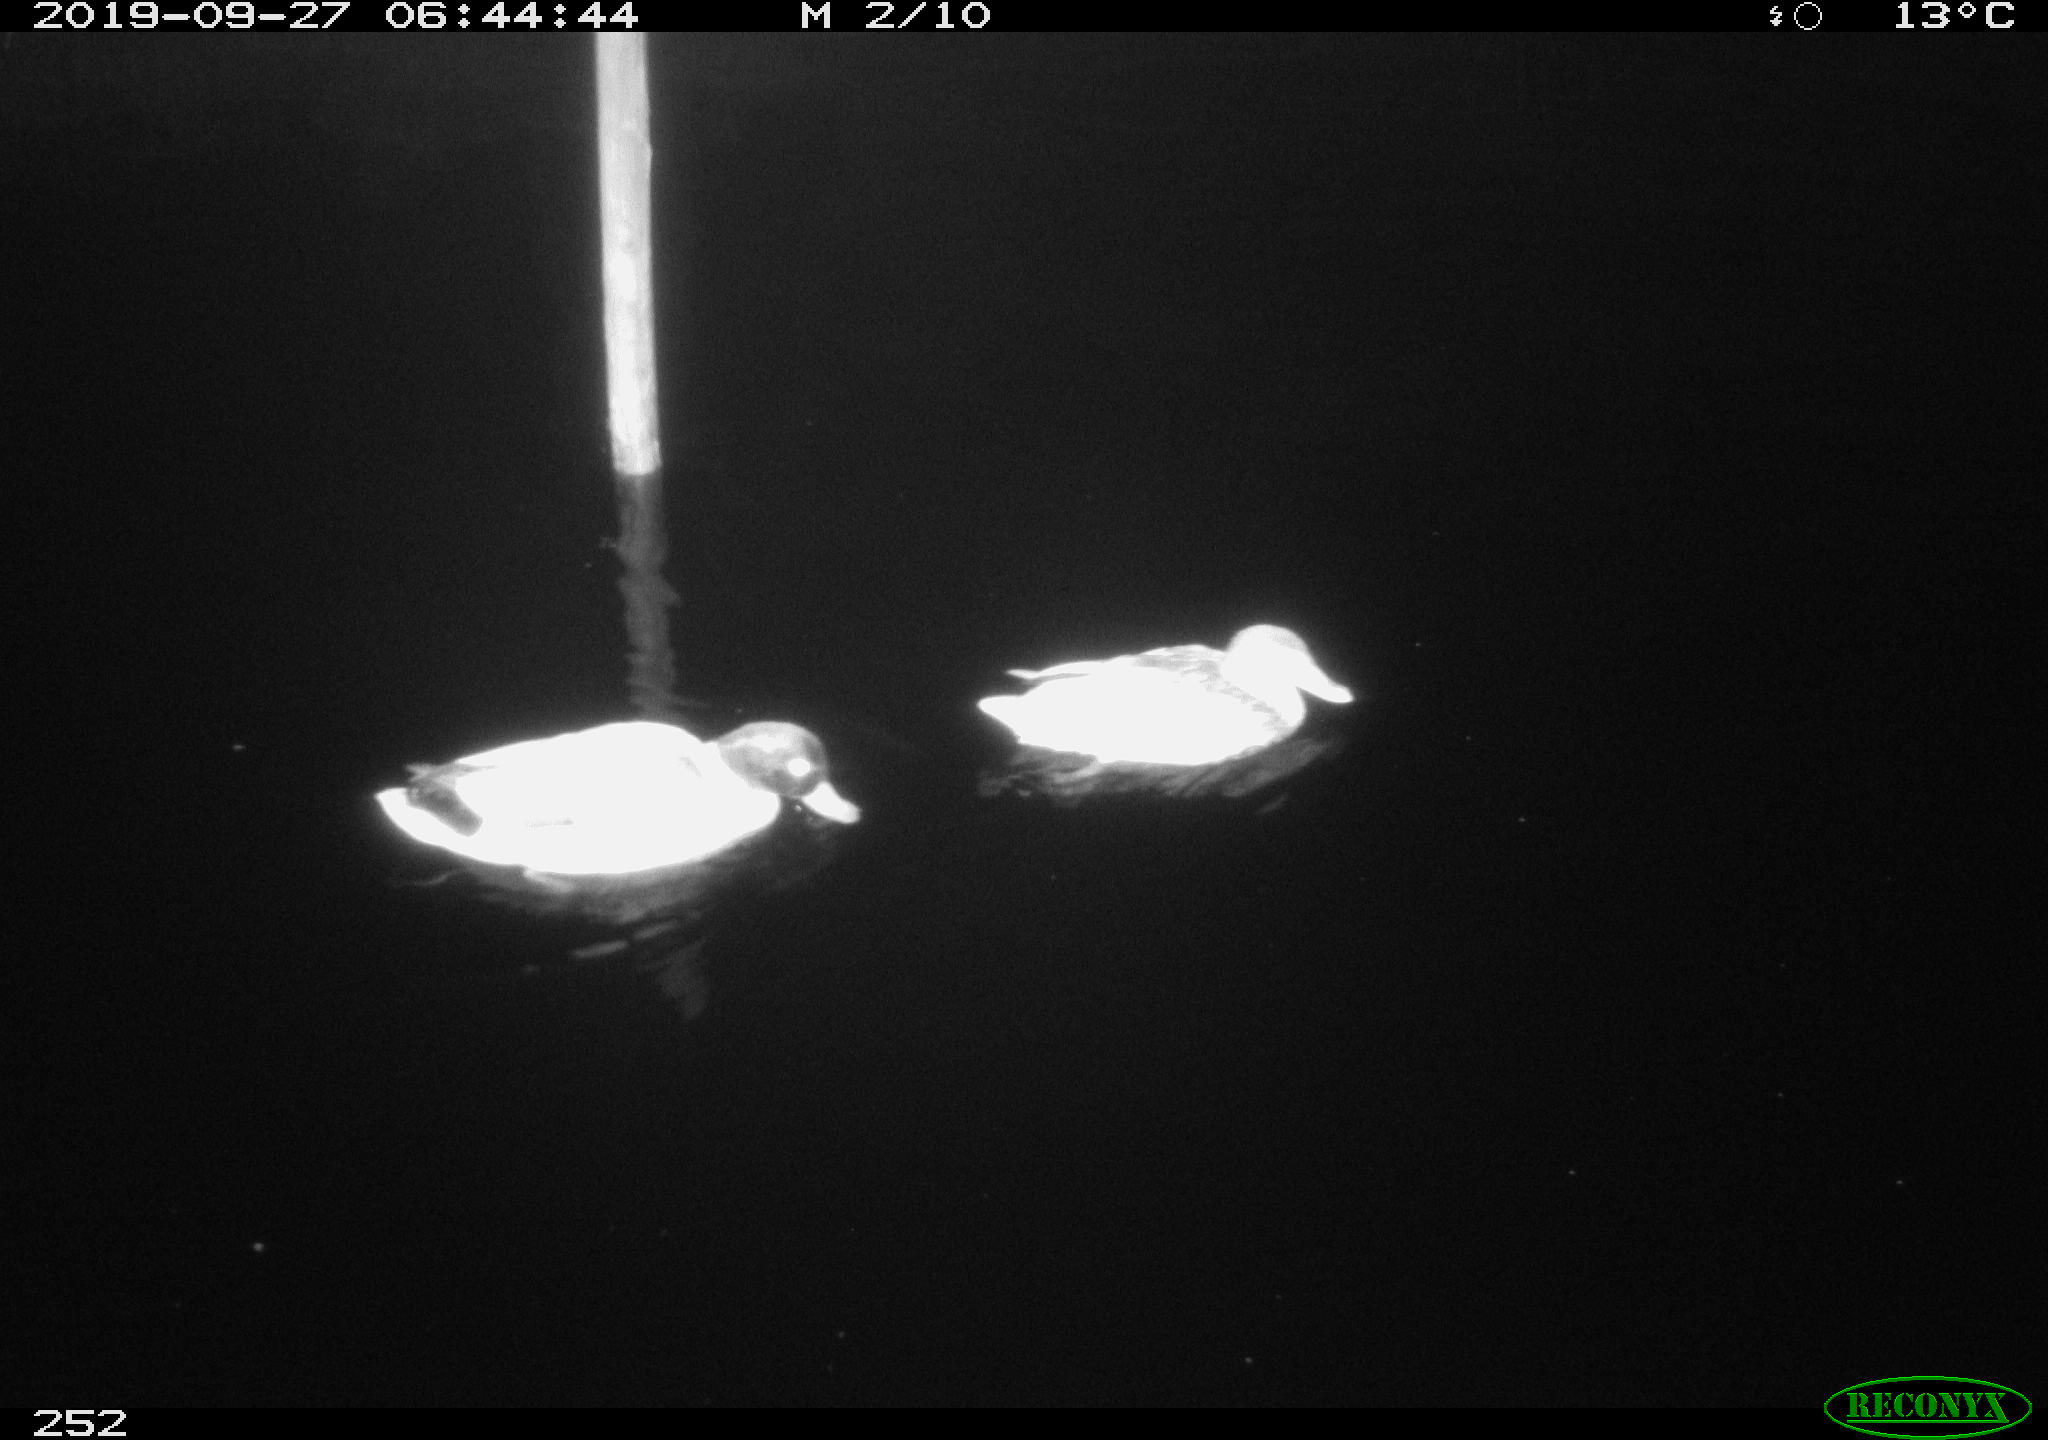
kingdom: Animalia
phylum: Chordata
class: Aves
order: Anseriformes
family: Anatidae
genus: Anas
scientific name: Anas platyrhynchos
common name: Mallard
